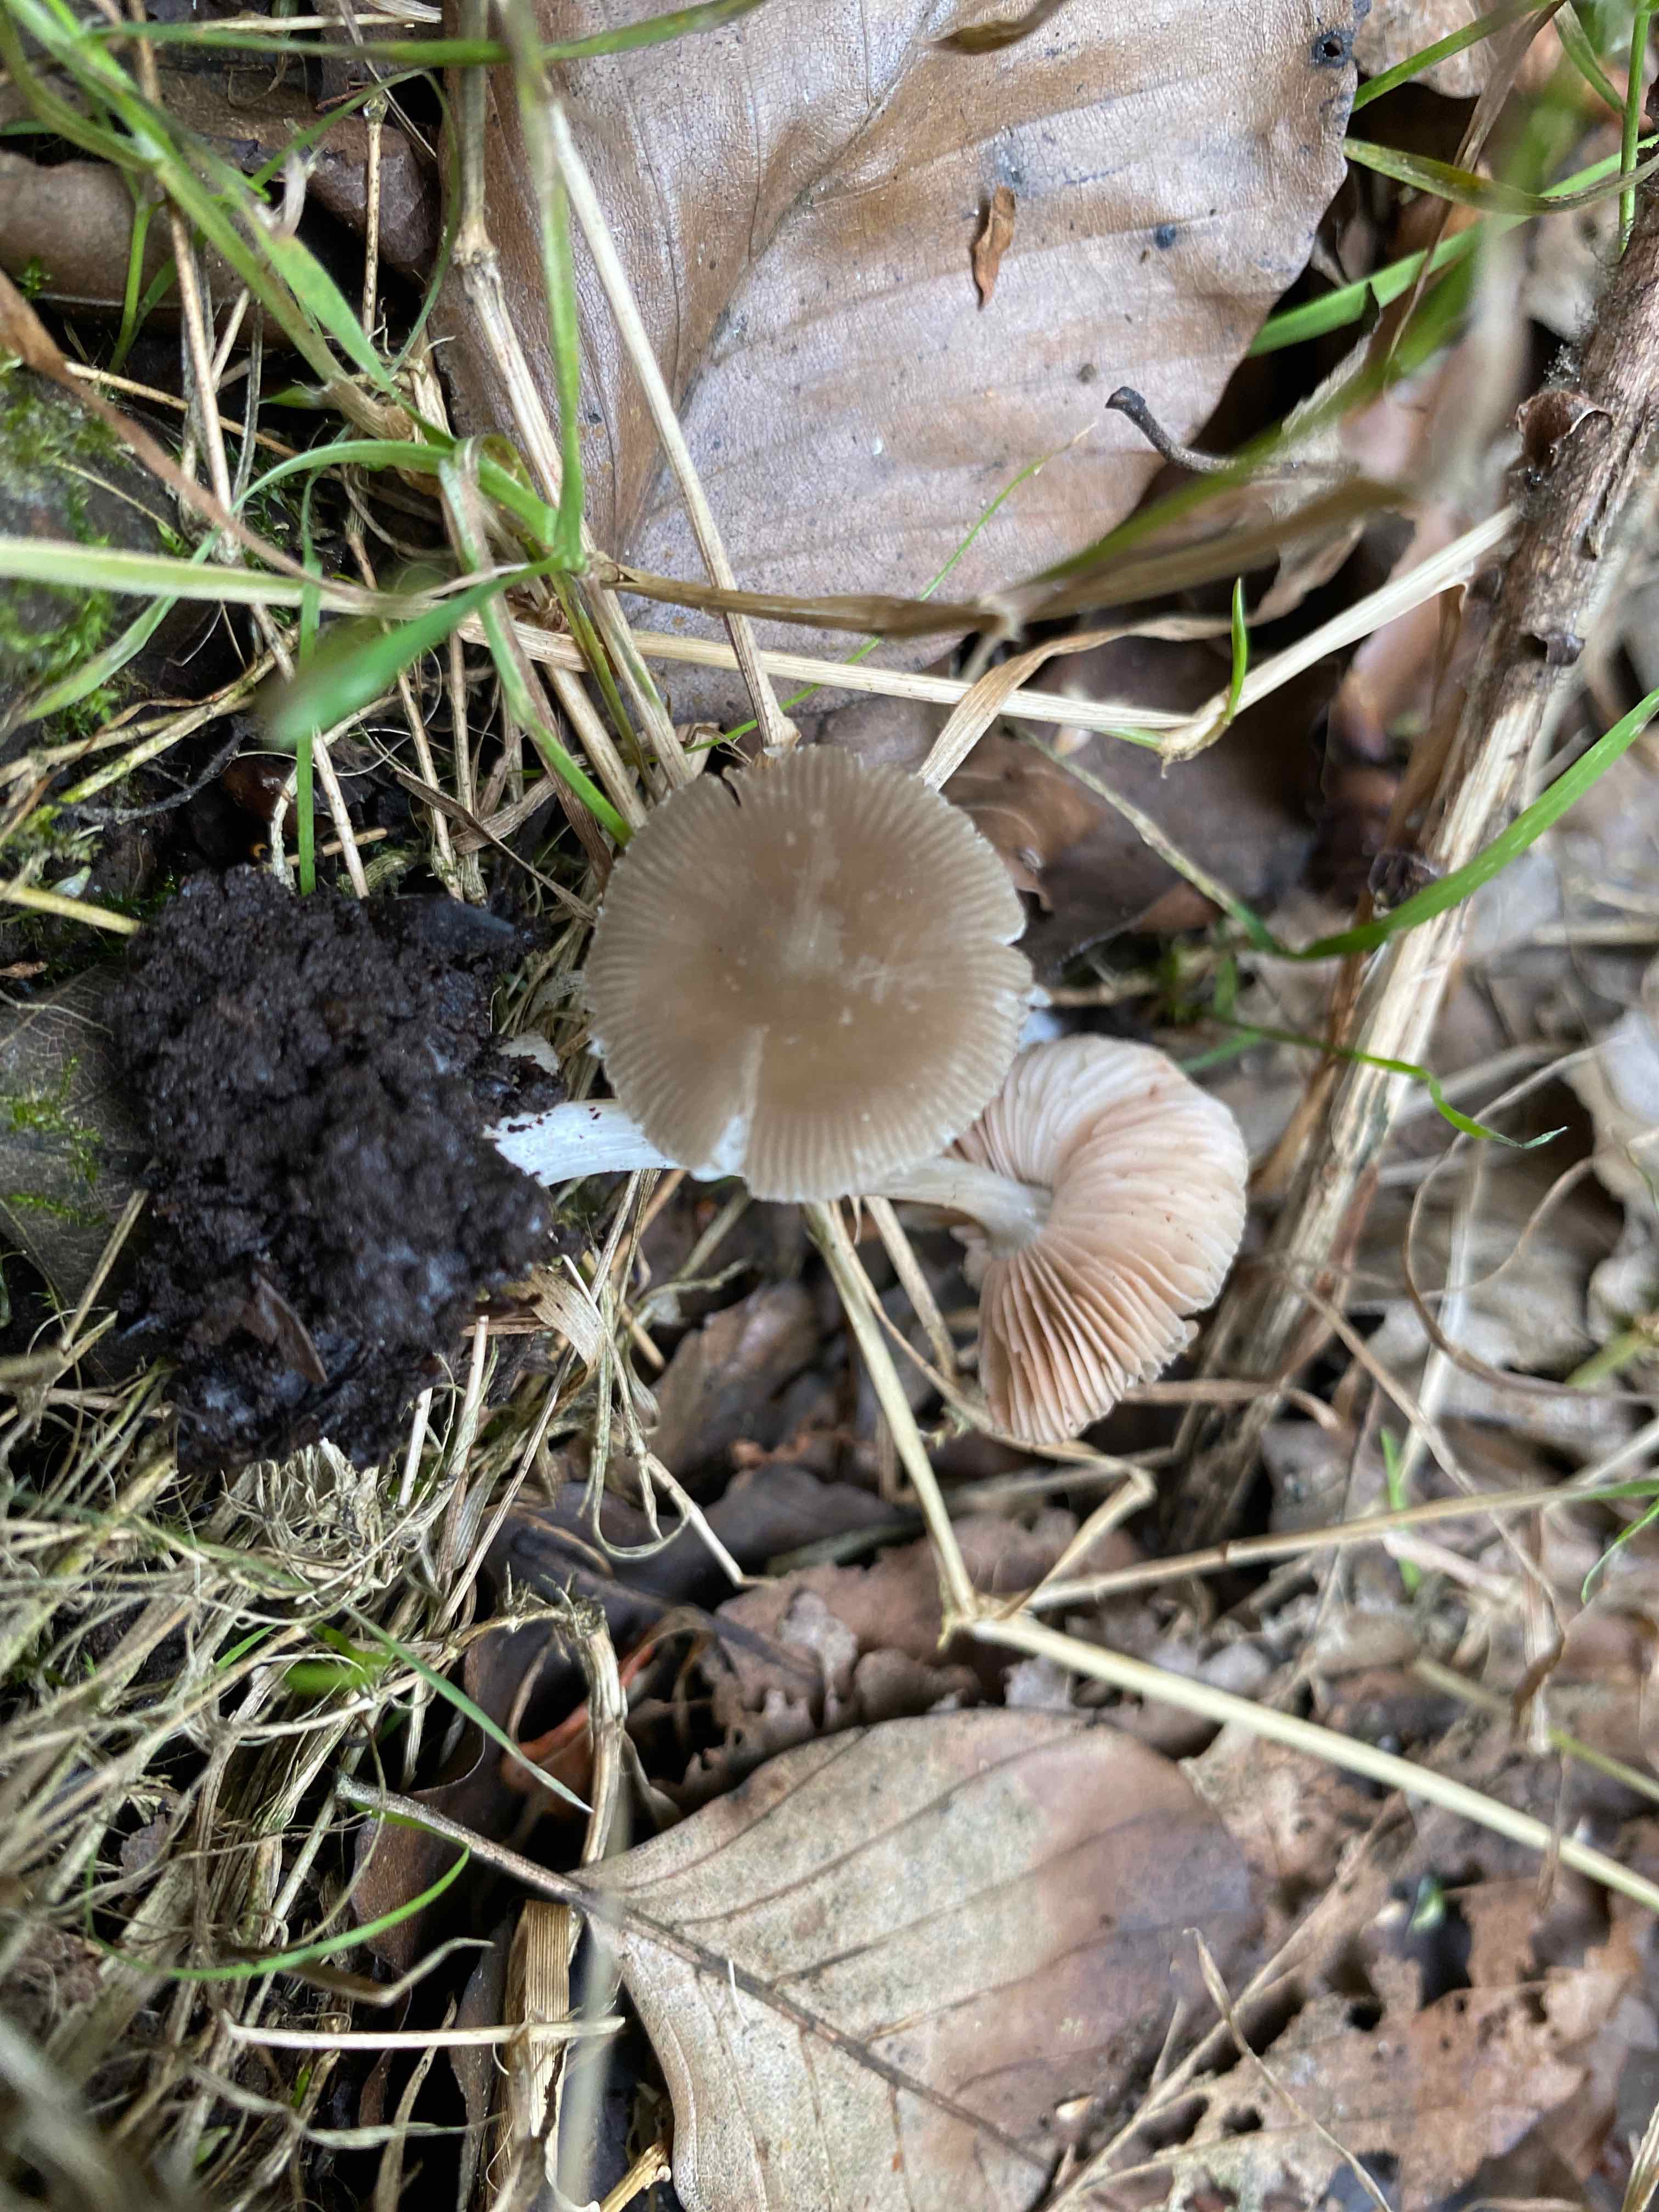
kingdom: Fungi
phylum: Basidiomycota
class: Agaricomycetes
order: Agaricales
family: Pluteaceae
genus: Pluteus
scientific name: Pluteus insidiosus
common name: næbbet skærmhat
